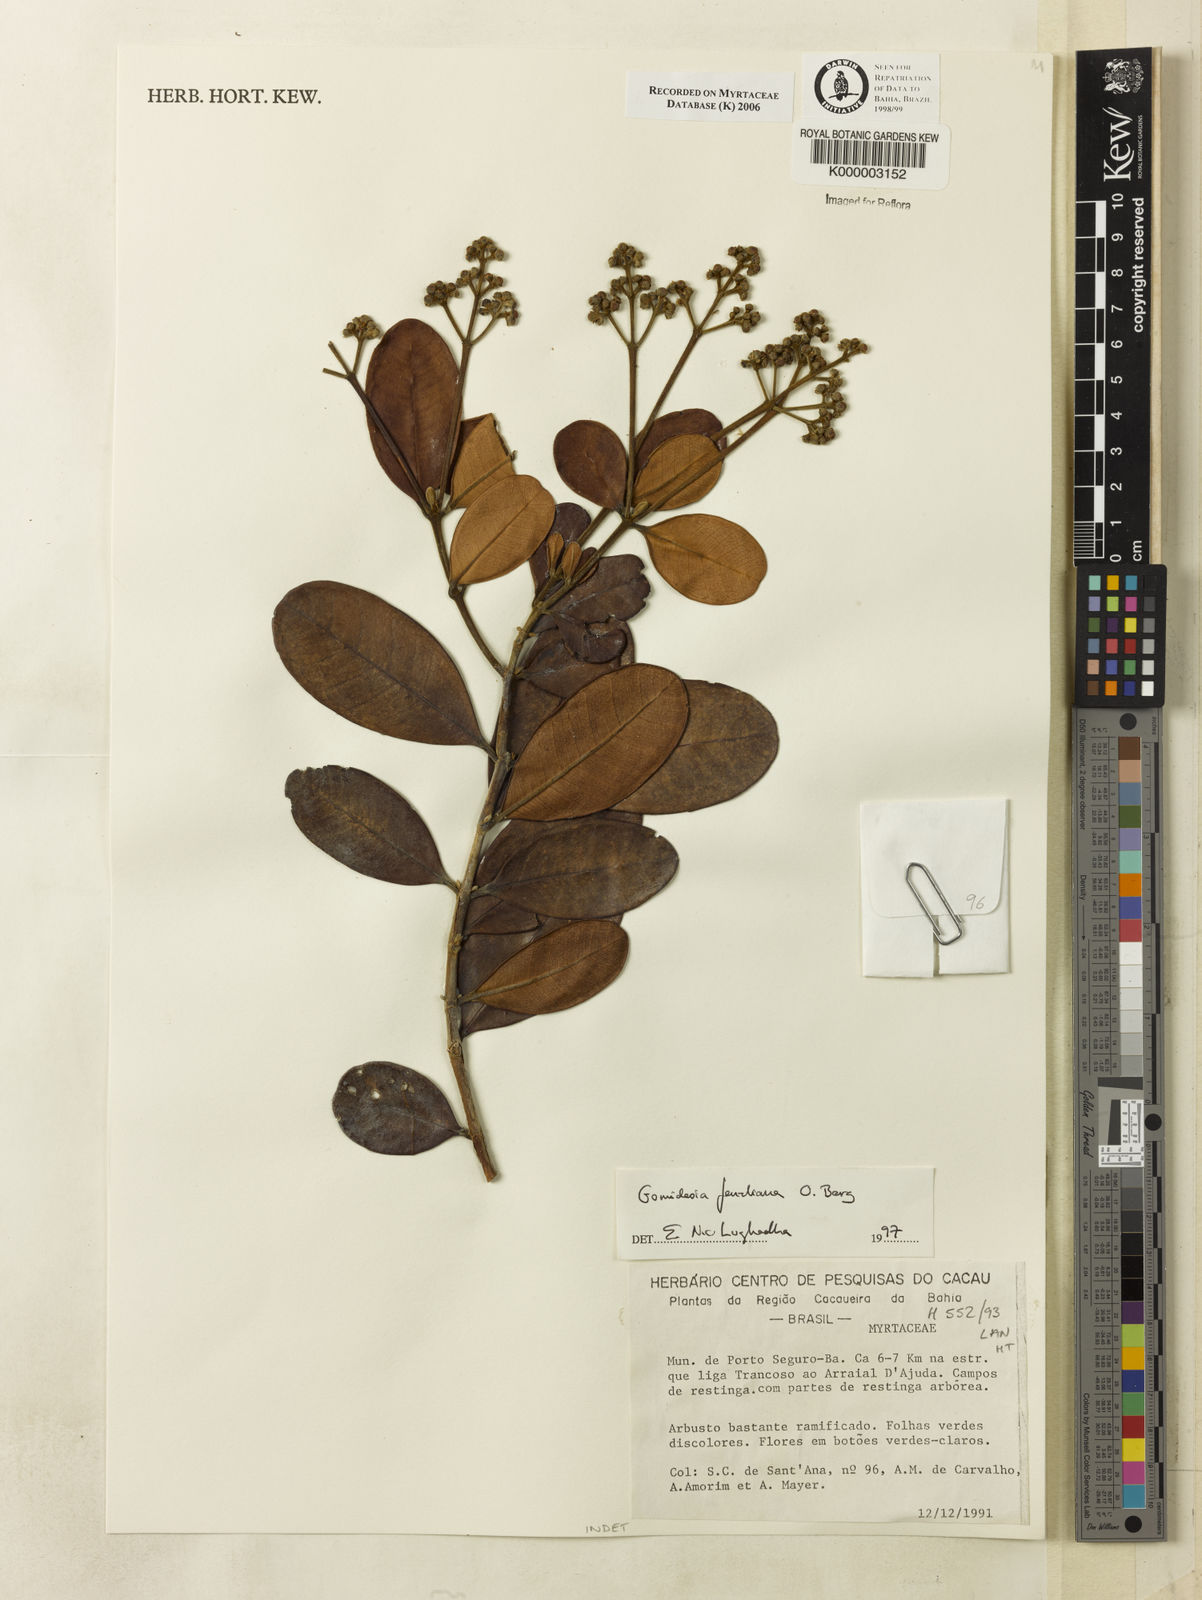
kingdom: Plantae
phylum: Tracheophyta
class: Magnoliopsida
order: Myrtales
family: Myrtaceae
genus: Myrcia
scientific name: Myrcia ilheosensis
